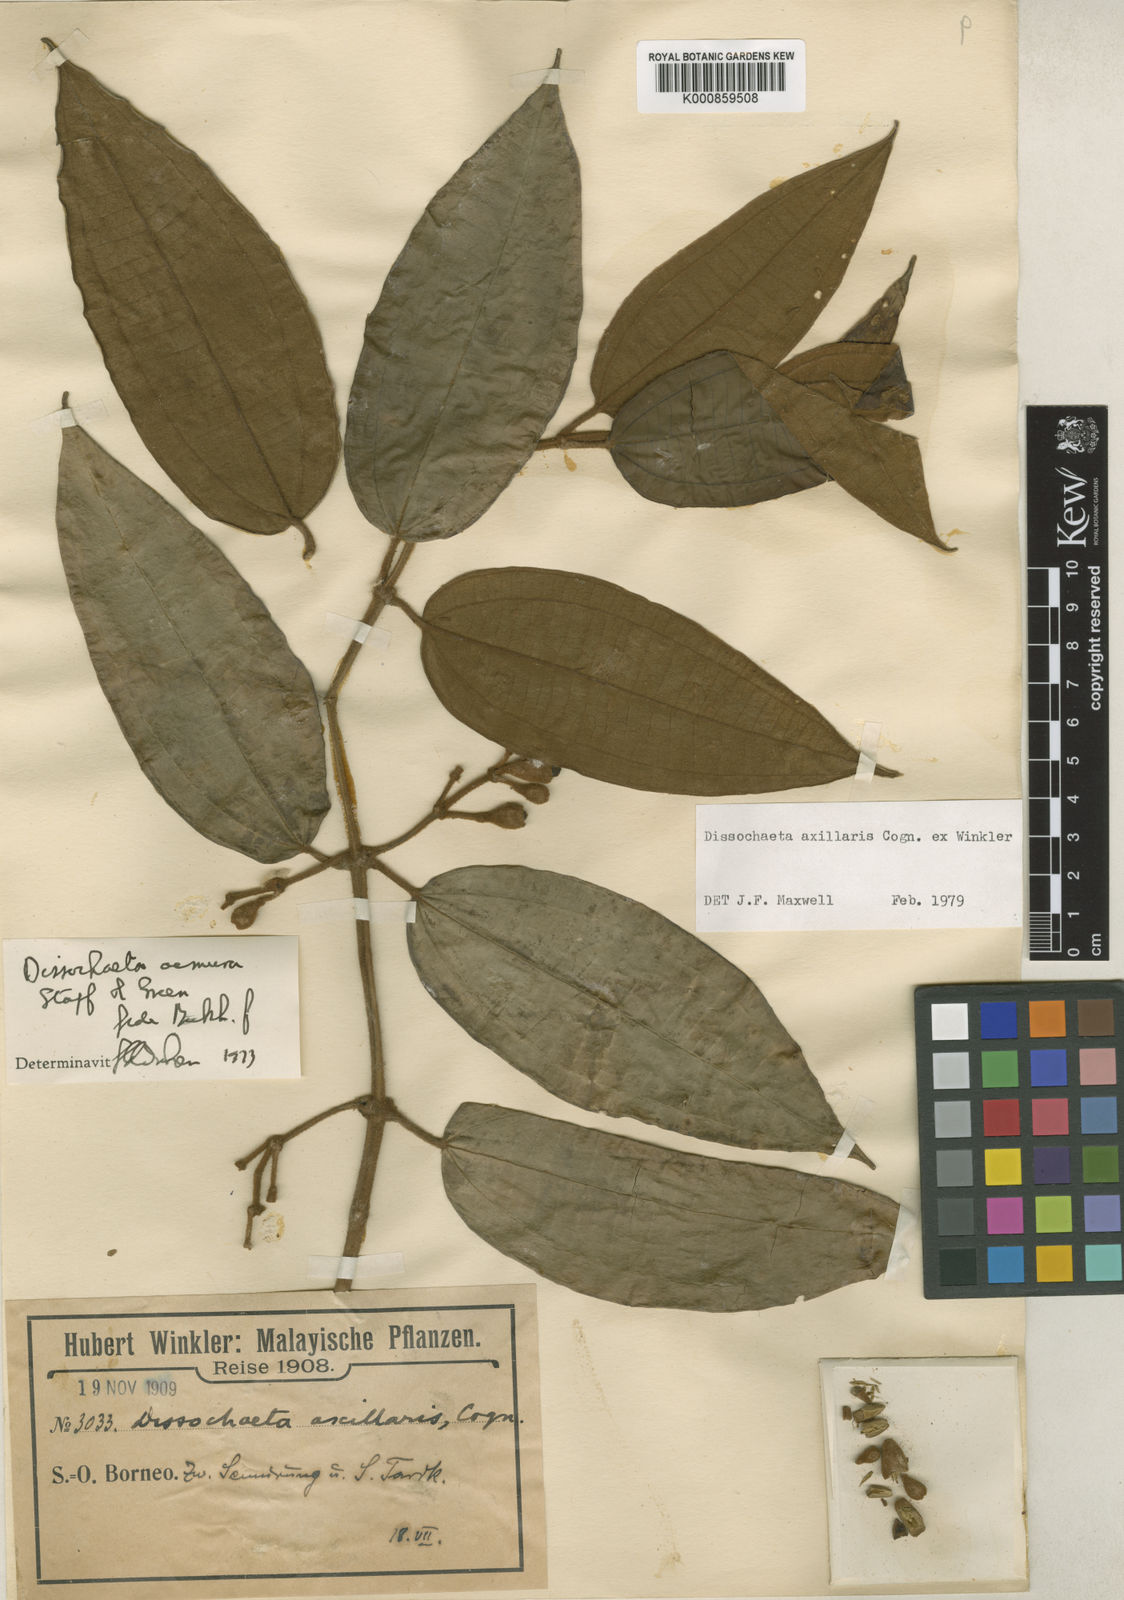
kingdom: Plantae
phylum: Tracheophyta
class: Magnoliopsida
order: Myrtales
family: Melastomataceae
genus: Dissochaeta
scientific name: Dissochaeta axillaris
